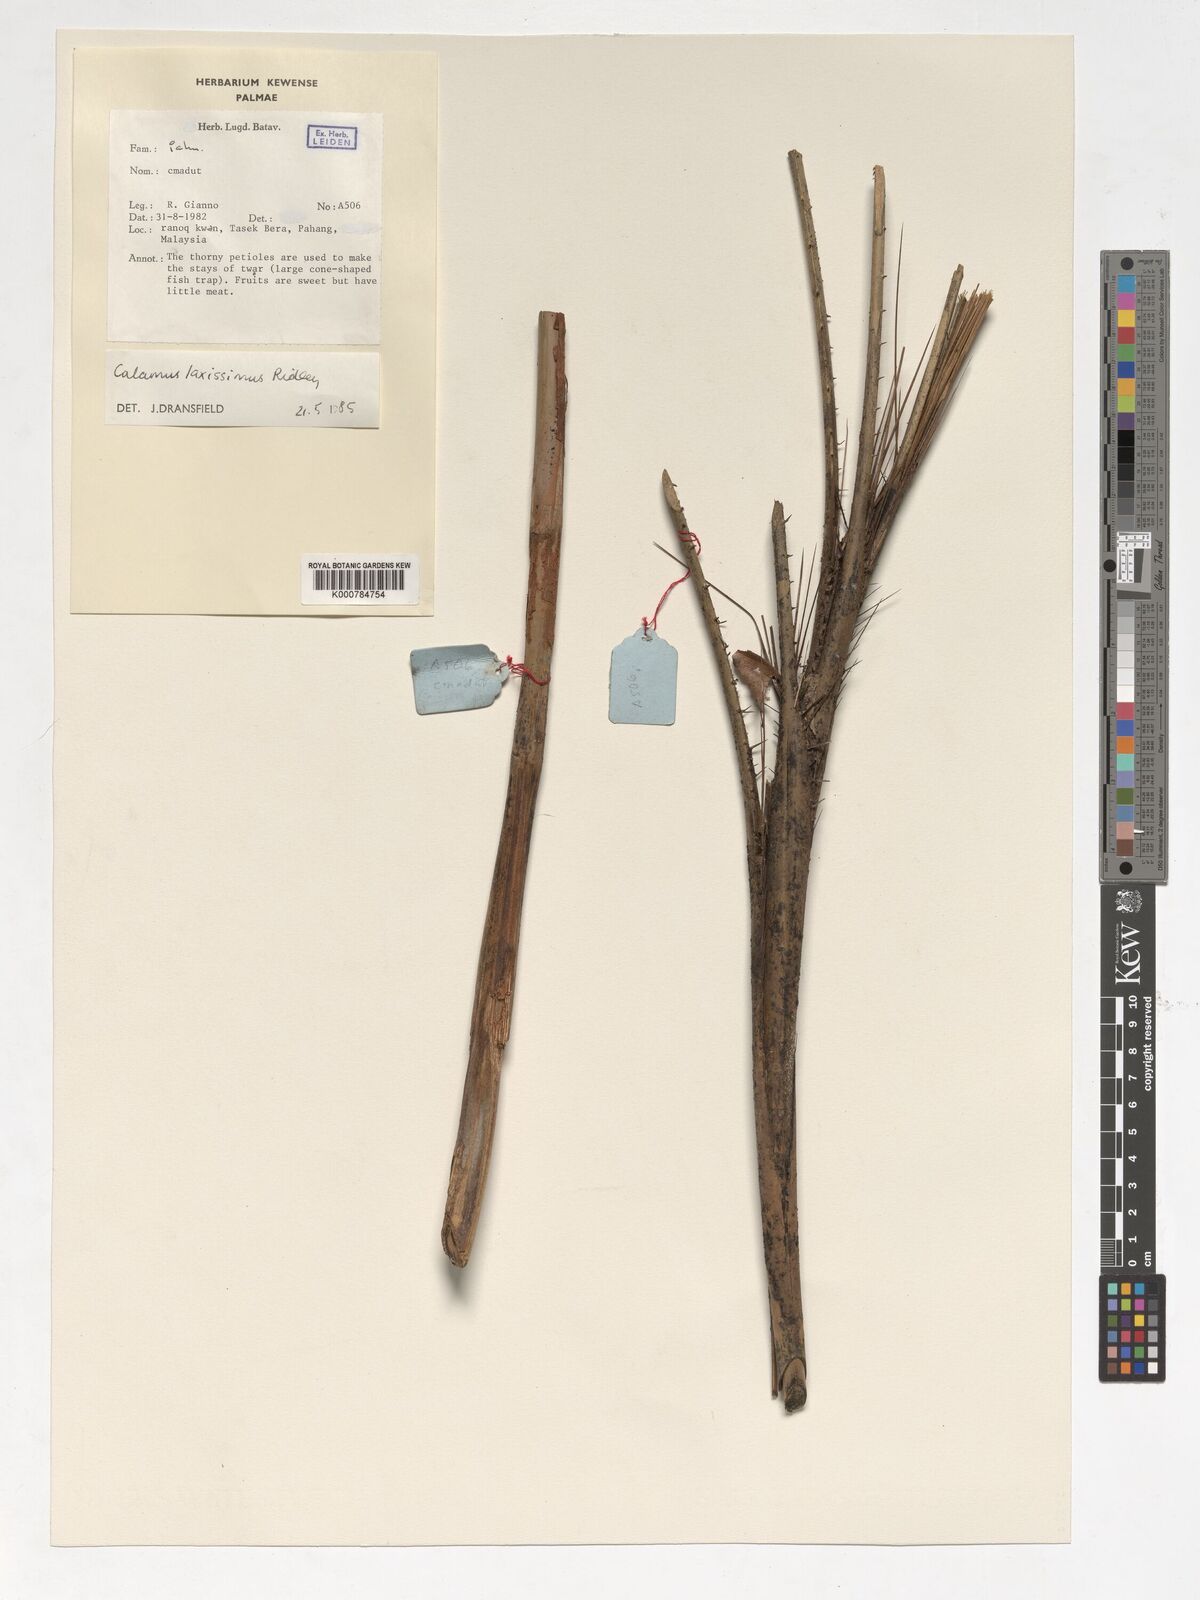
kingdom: Plantae
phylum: Tracheophyta
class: Liliopsida
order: Arecales
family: Arecaceae
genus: Calamus
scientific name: Calamus laxissimus
